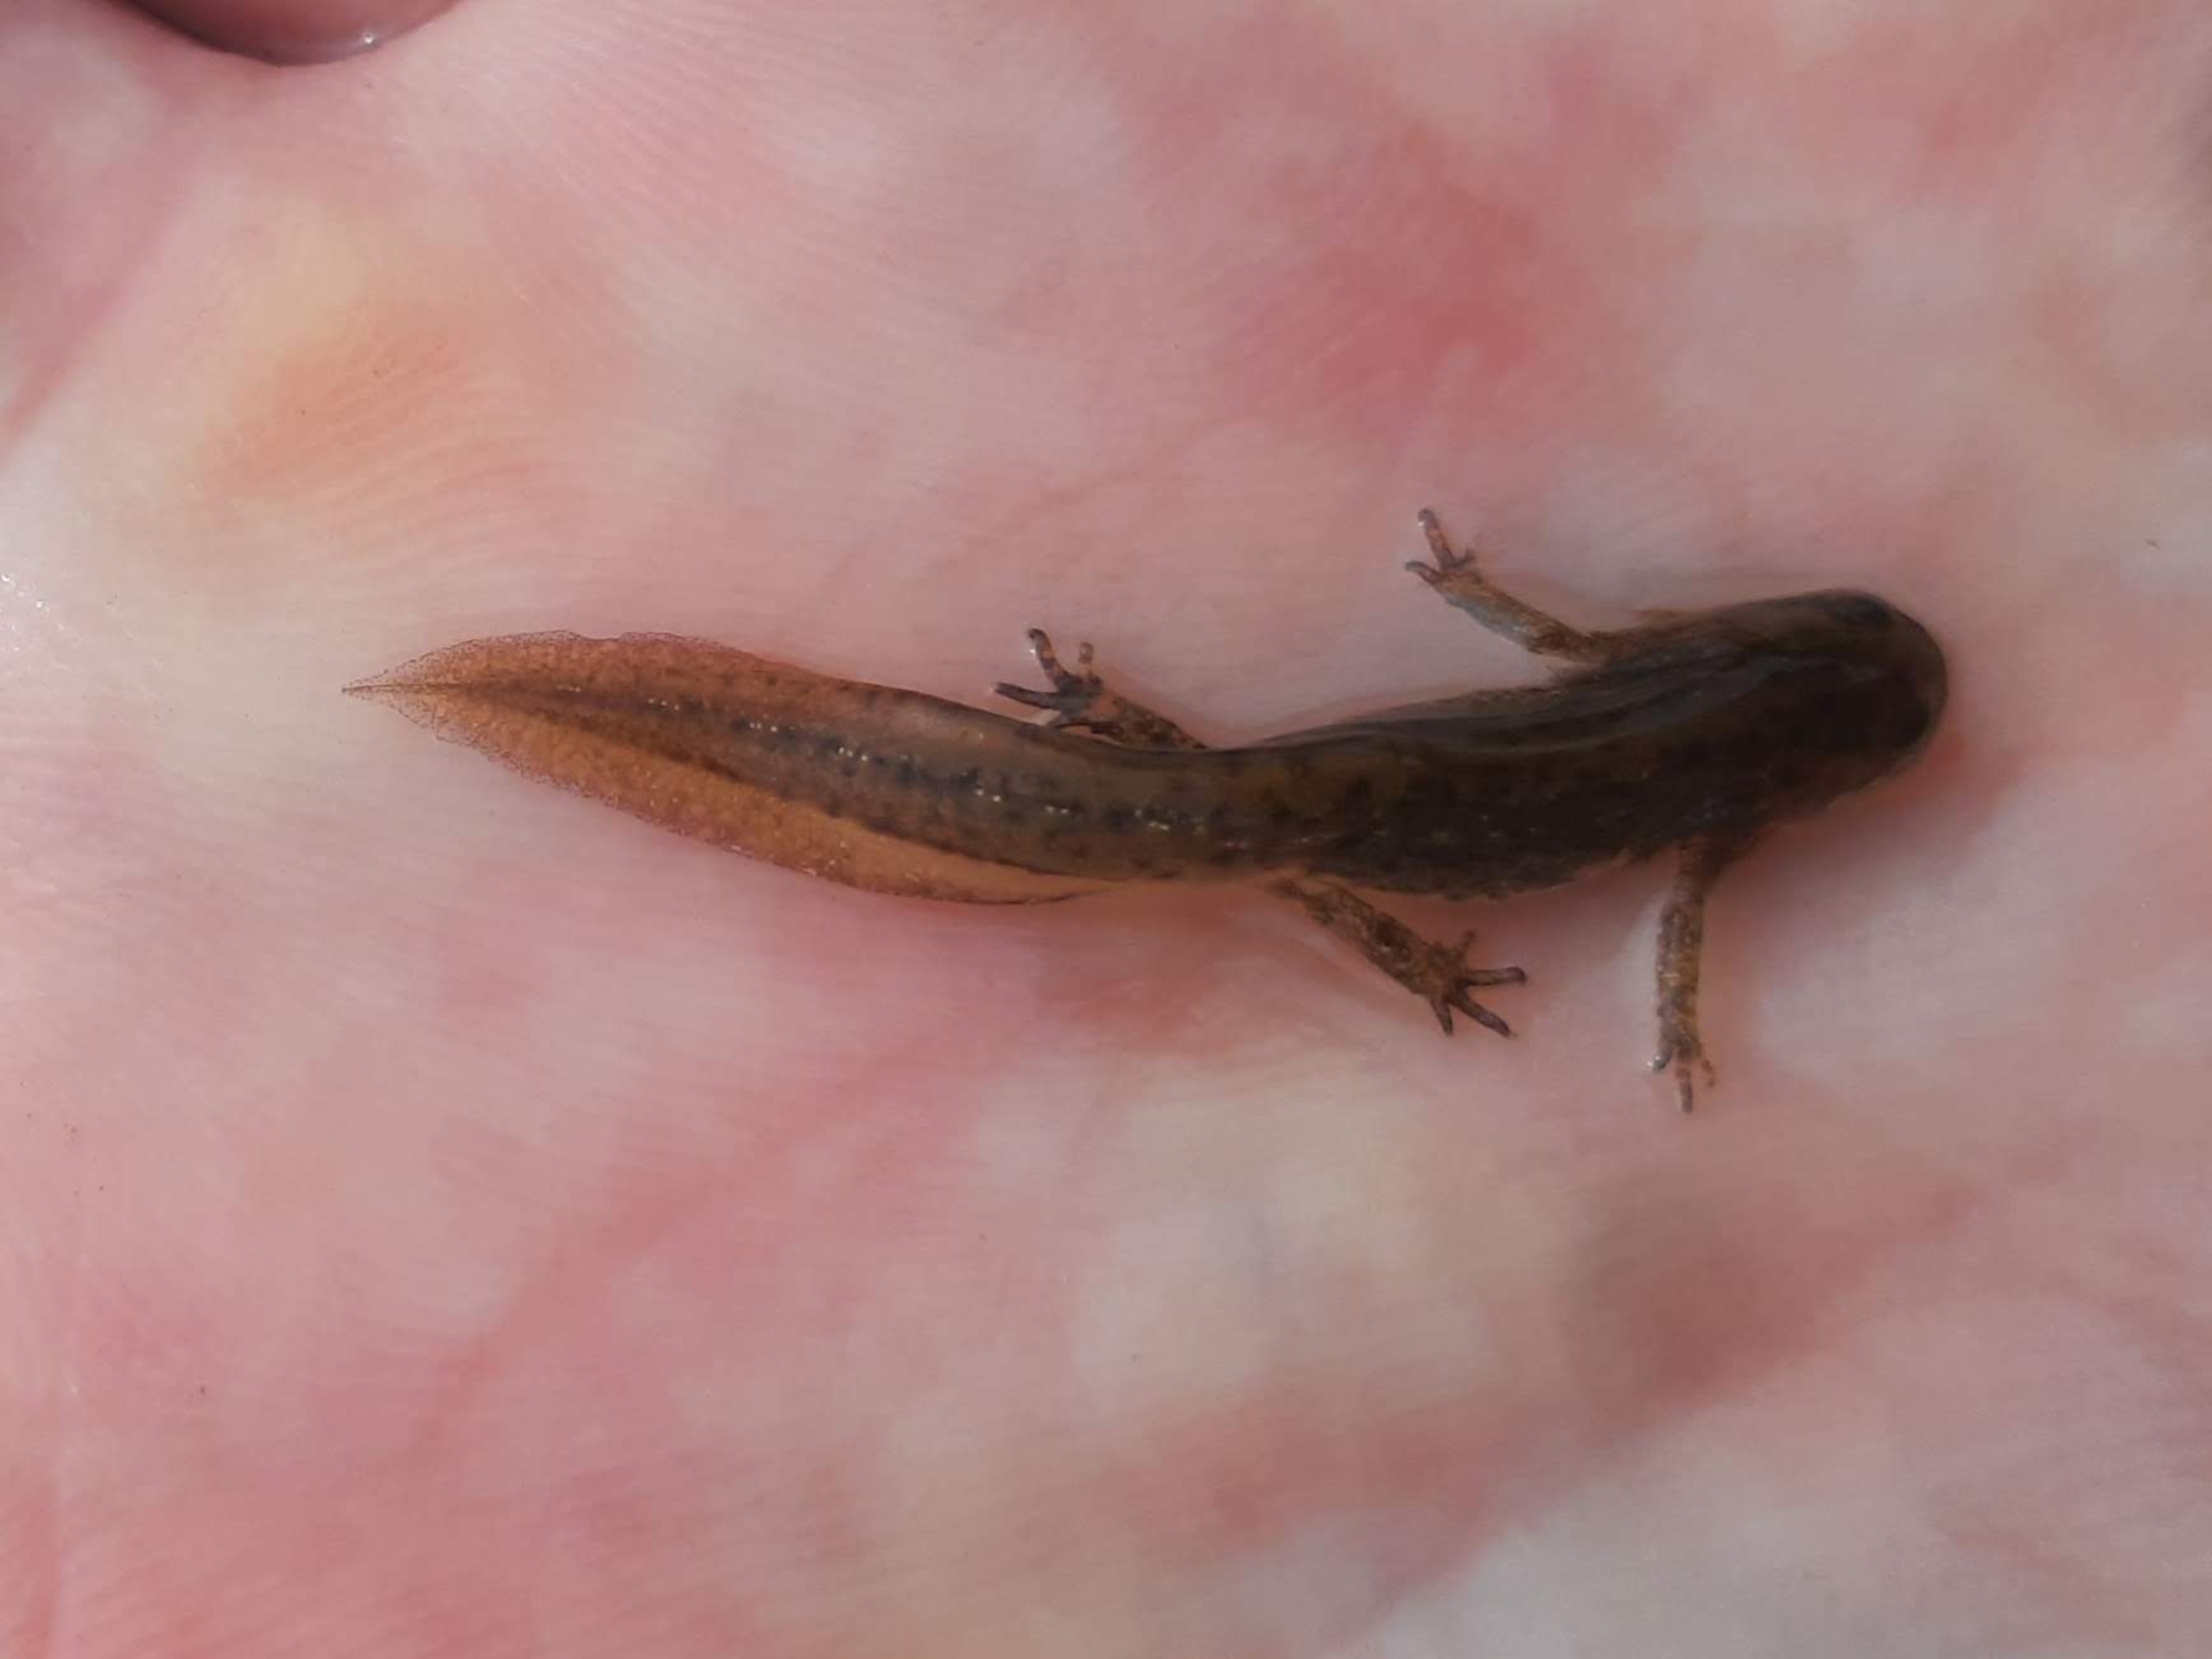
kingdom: Animalia
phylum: Chordata
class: Amphibia
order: Caudata
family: Salamandridae
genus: Lissotriton
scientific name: Lissotriton vulgaris
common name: Lille vandsalamander
